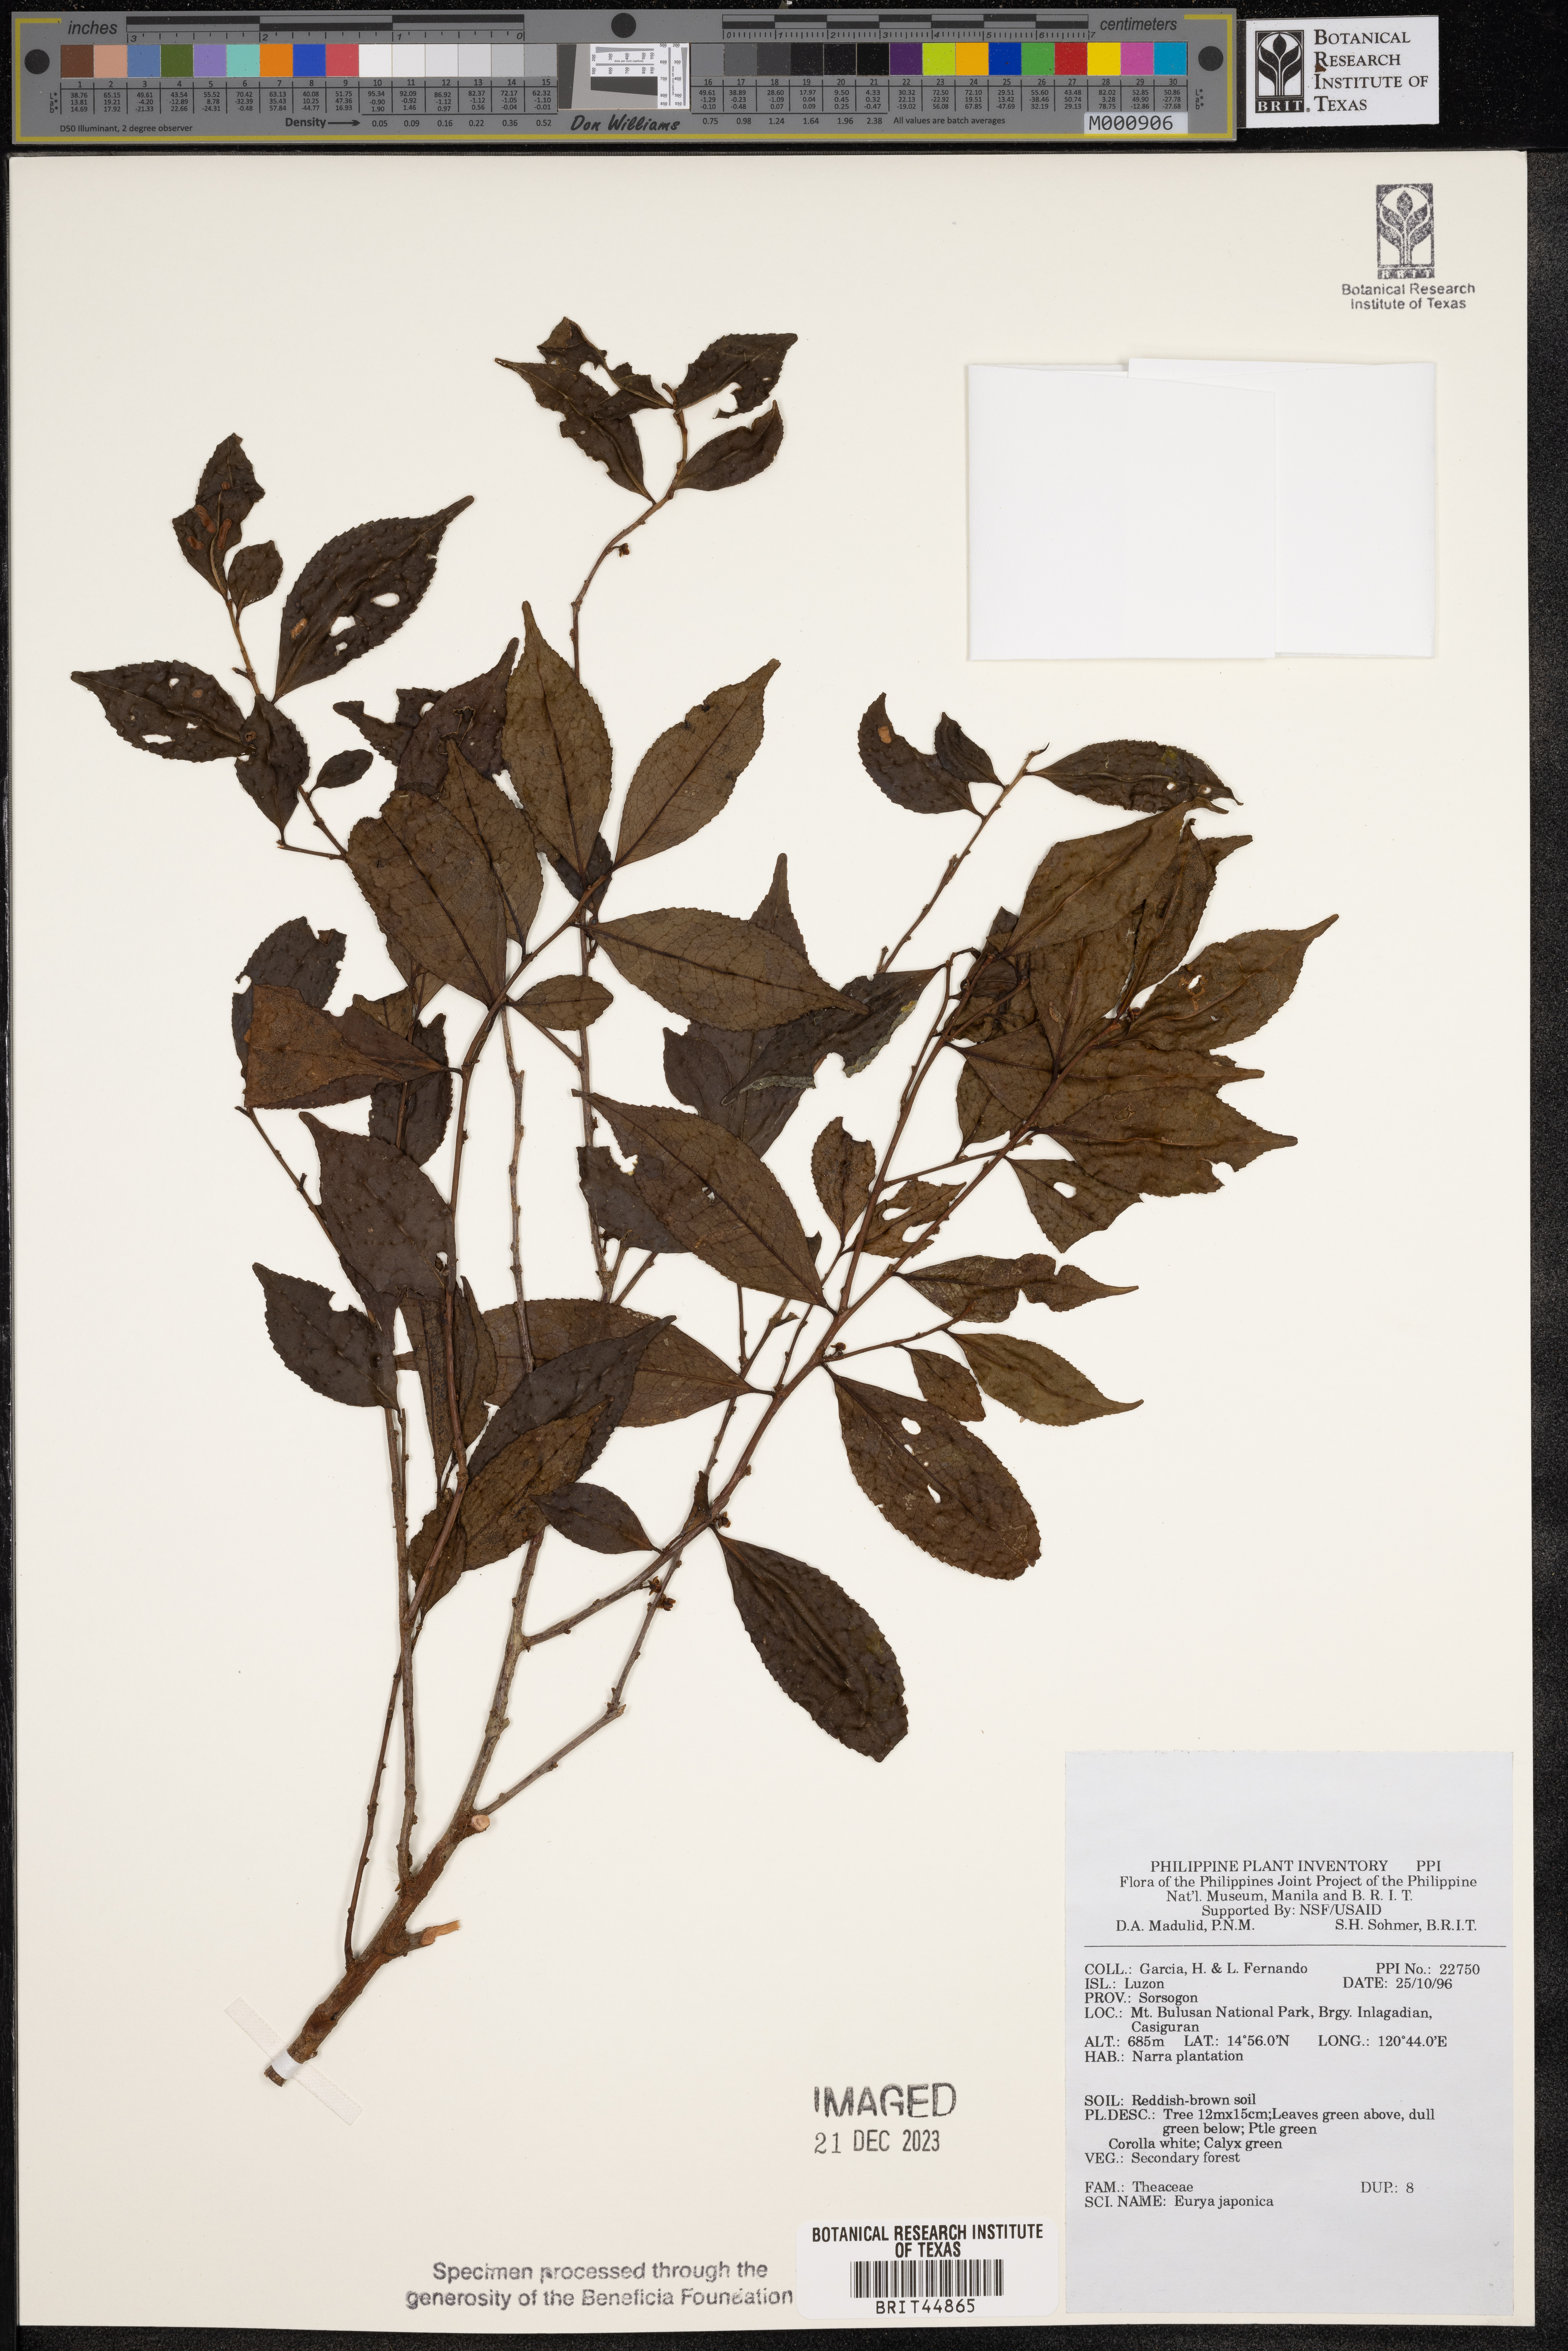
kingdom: Plantae
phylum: Tracheophyta
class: Magnoliopsida
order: Ericales
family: Pentaphylacaceae
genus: Eurya
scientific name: Eurya japonica
